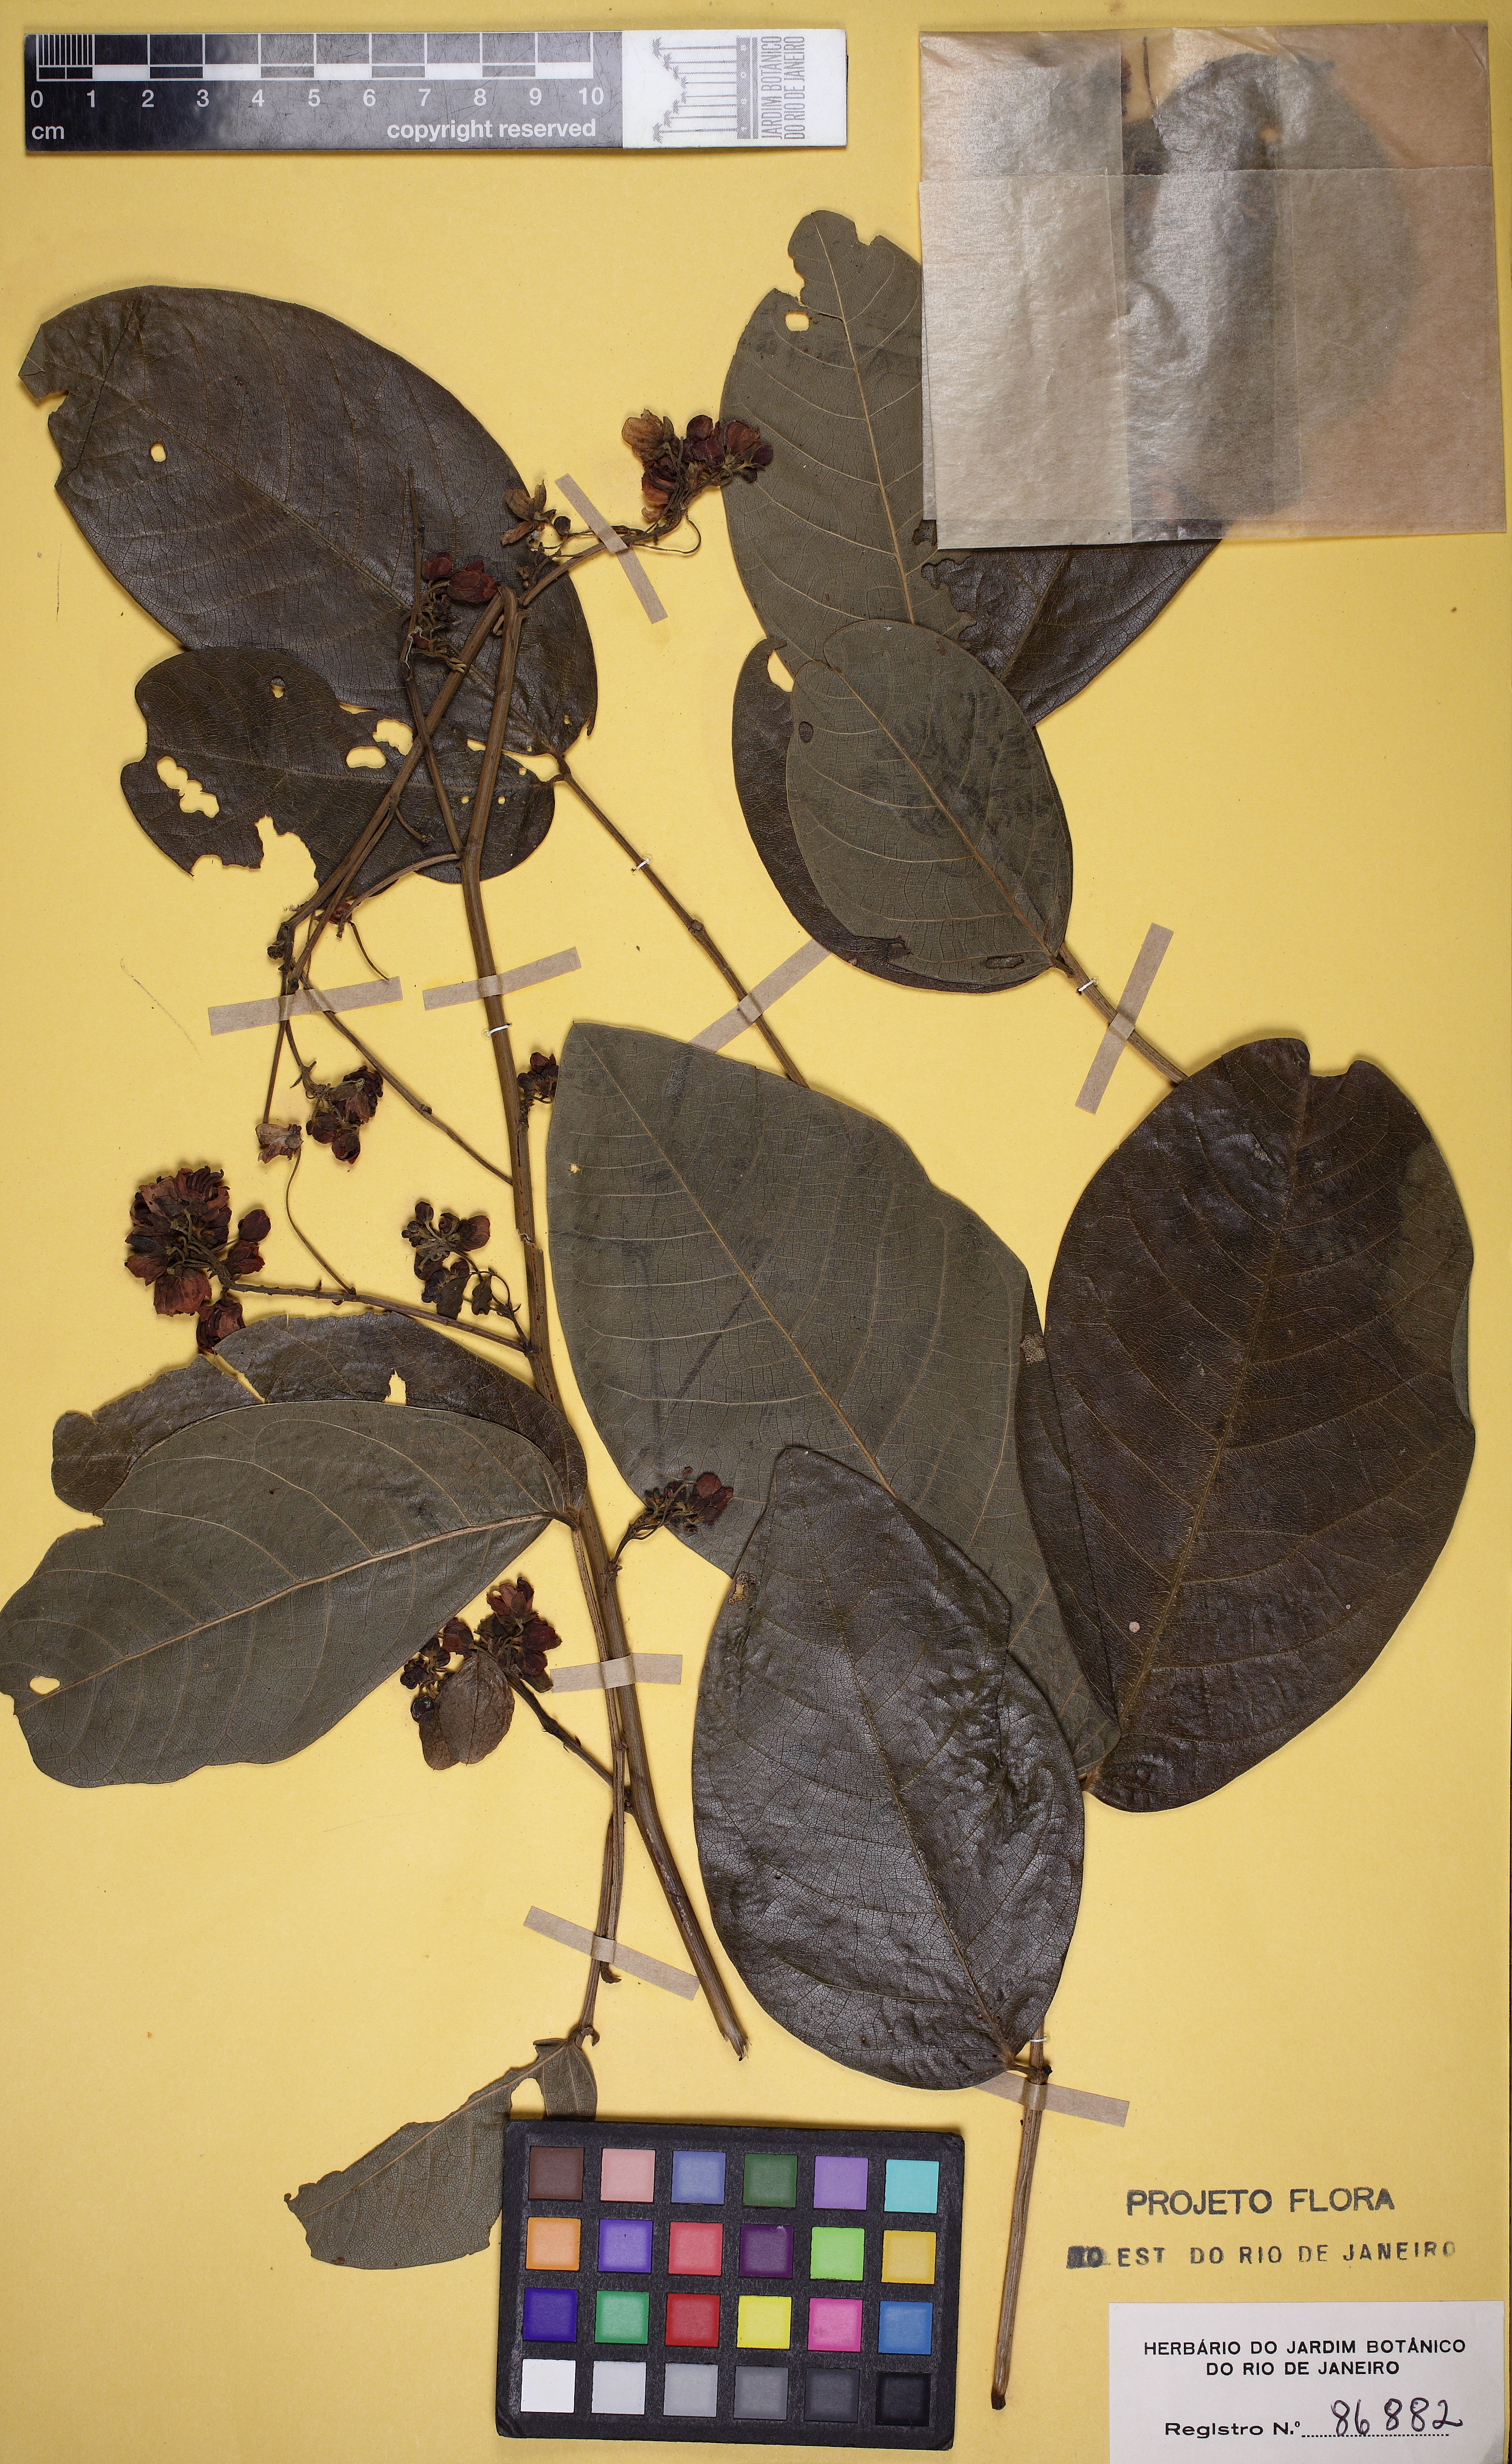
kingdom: Plantae
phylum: Tracheophyta
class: Magnoliopsida
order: Fabales
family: Fabaceae
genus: Senna
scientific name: Senna affinis
